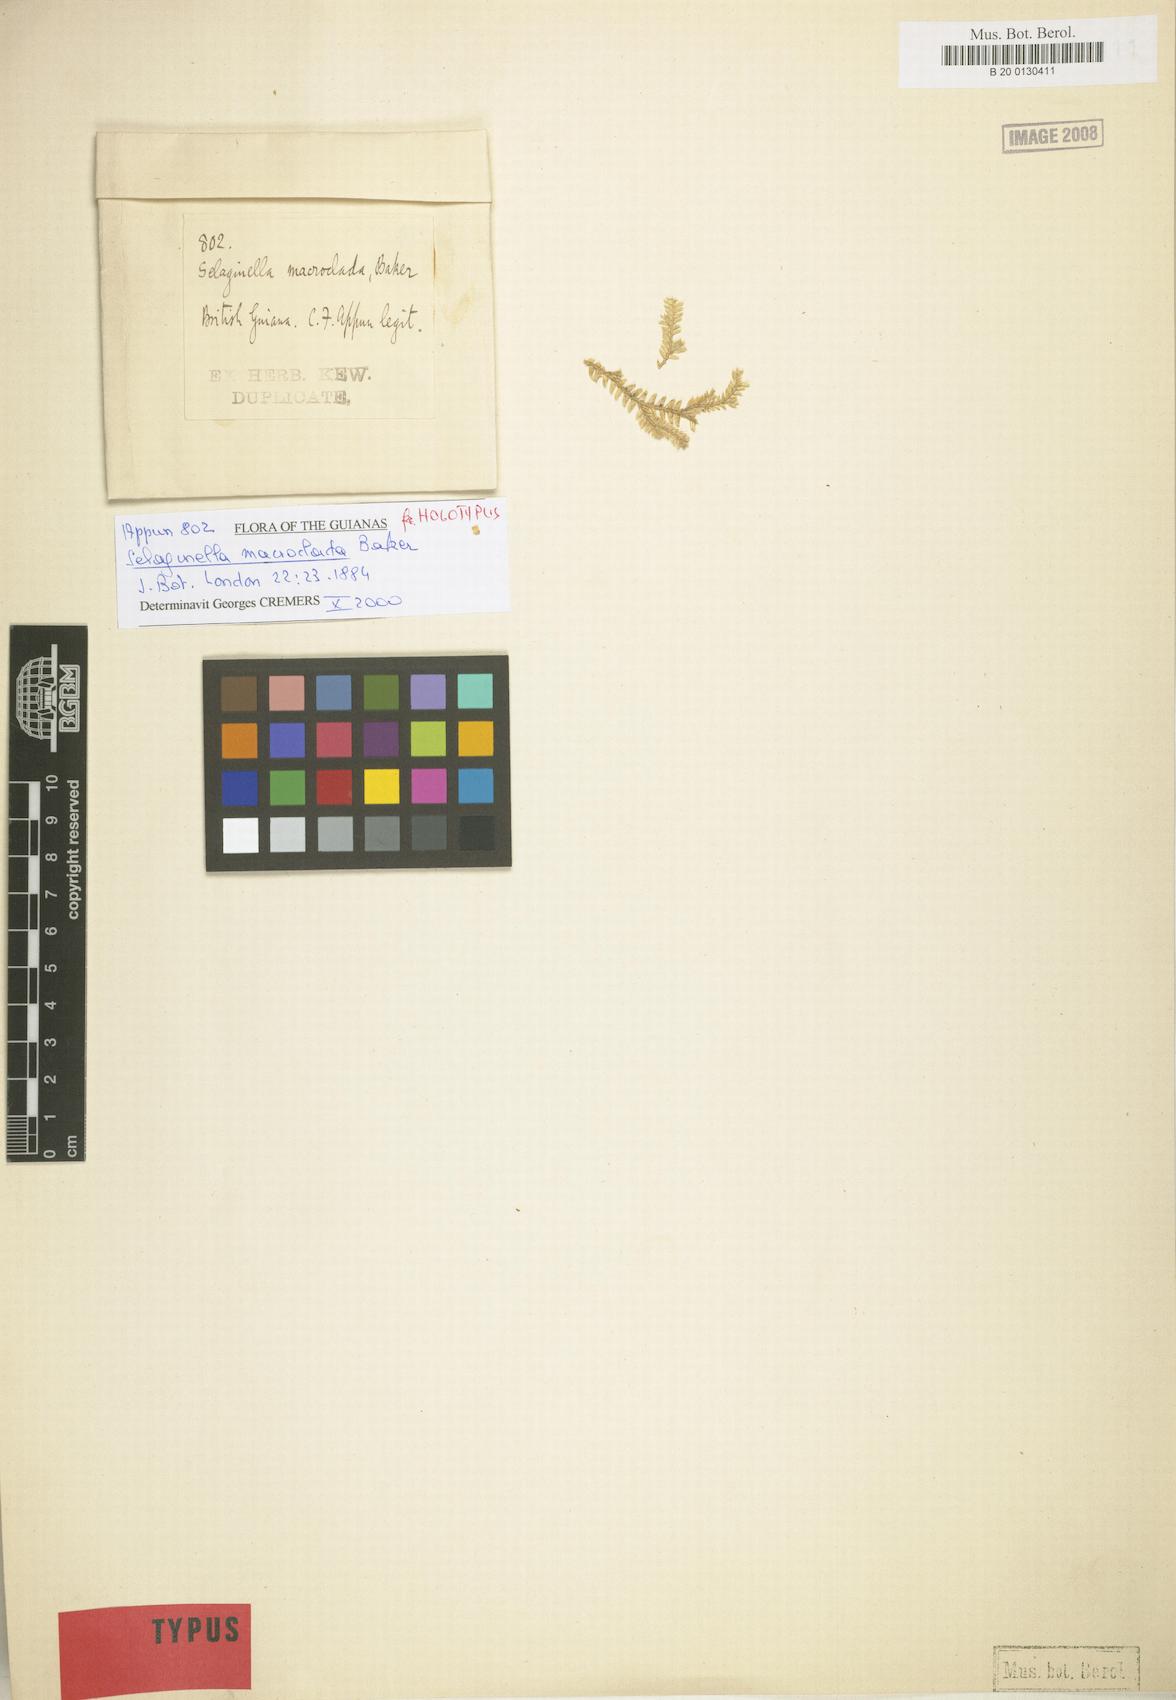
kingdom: Plantae
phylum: Tracheophyta
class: Lycopodiopsida
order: Selaginellales
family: Selaginellaceae
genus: Selaginella
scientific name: Selaginella parkeri
